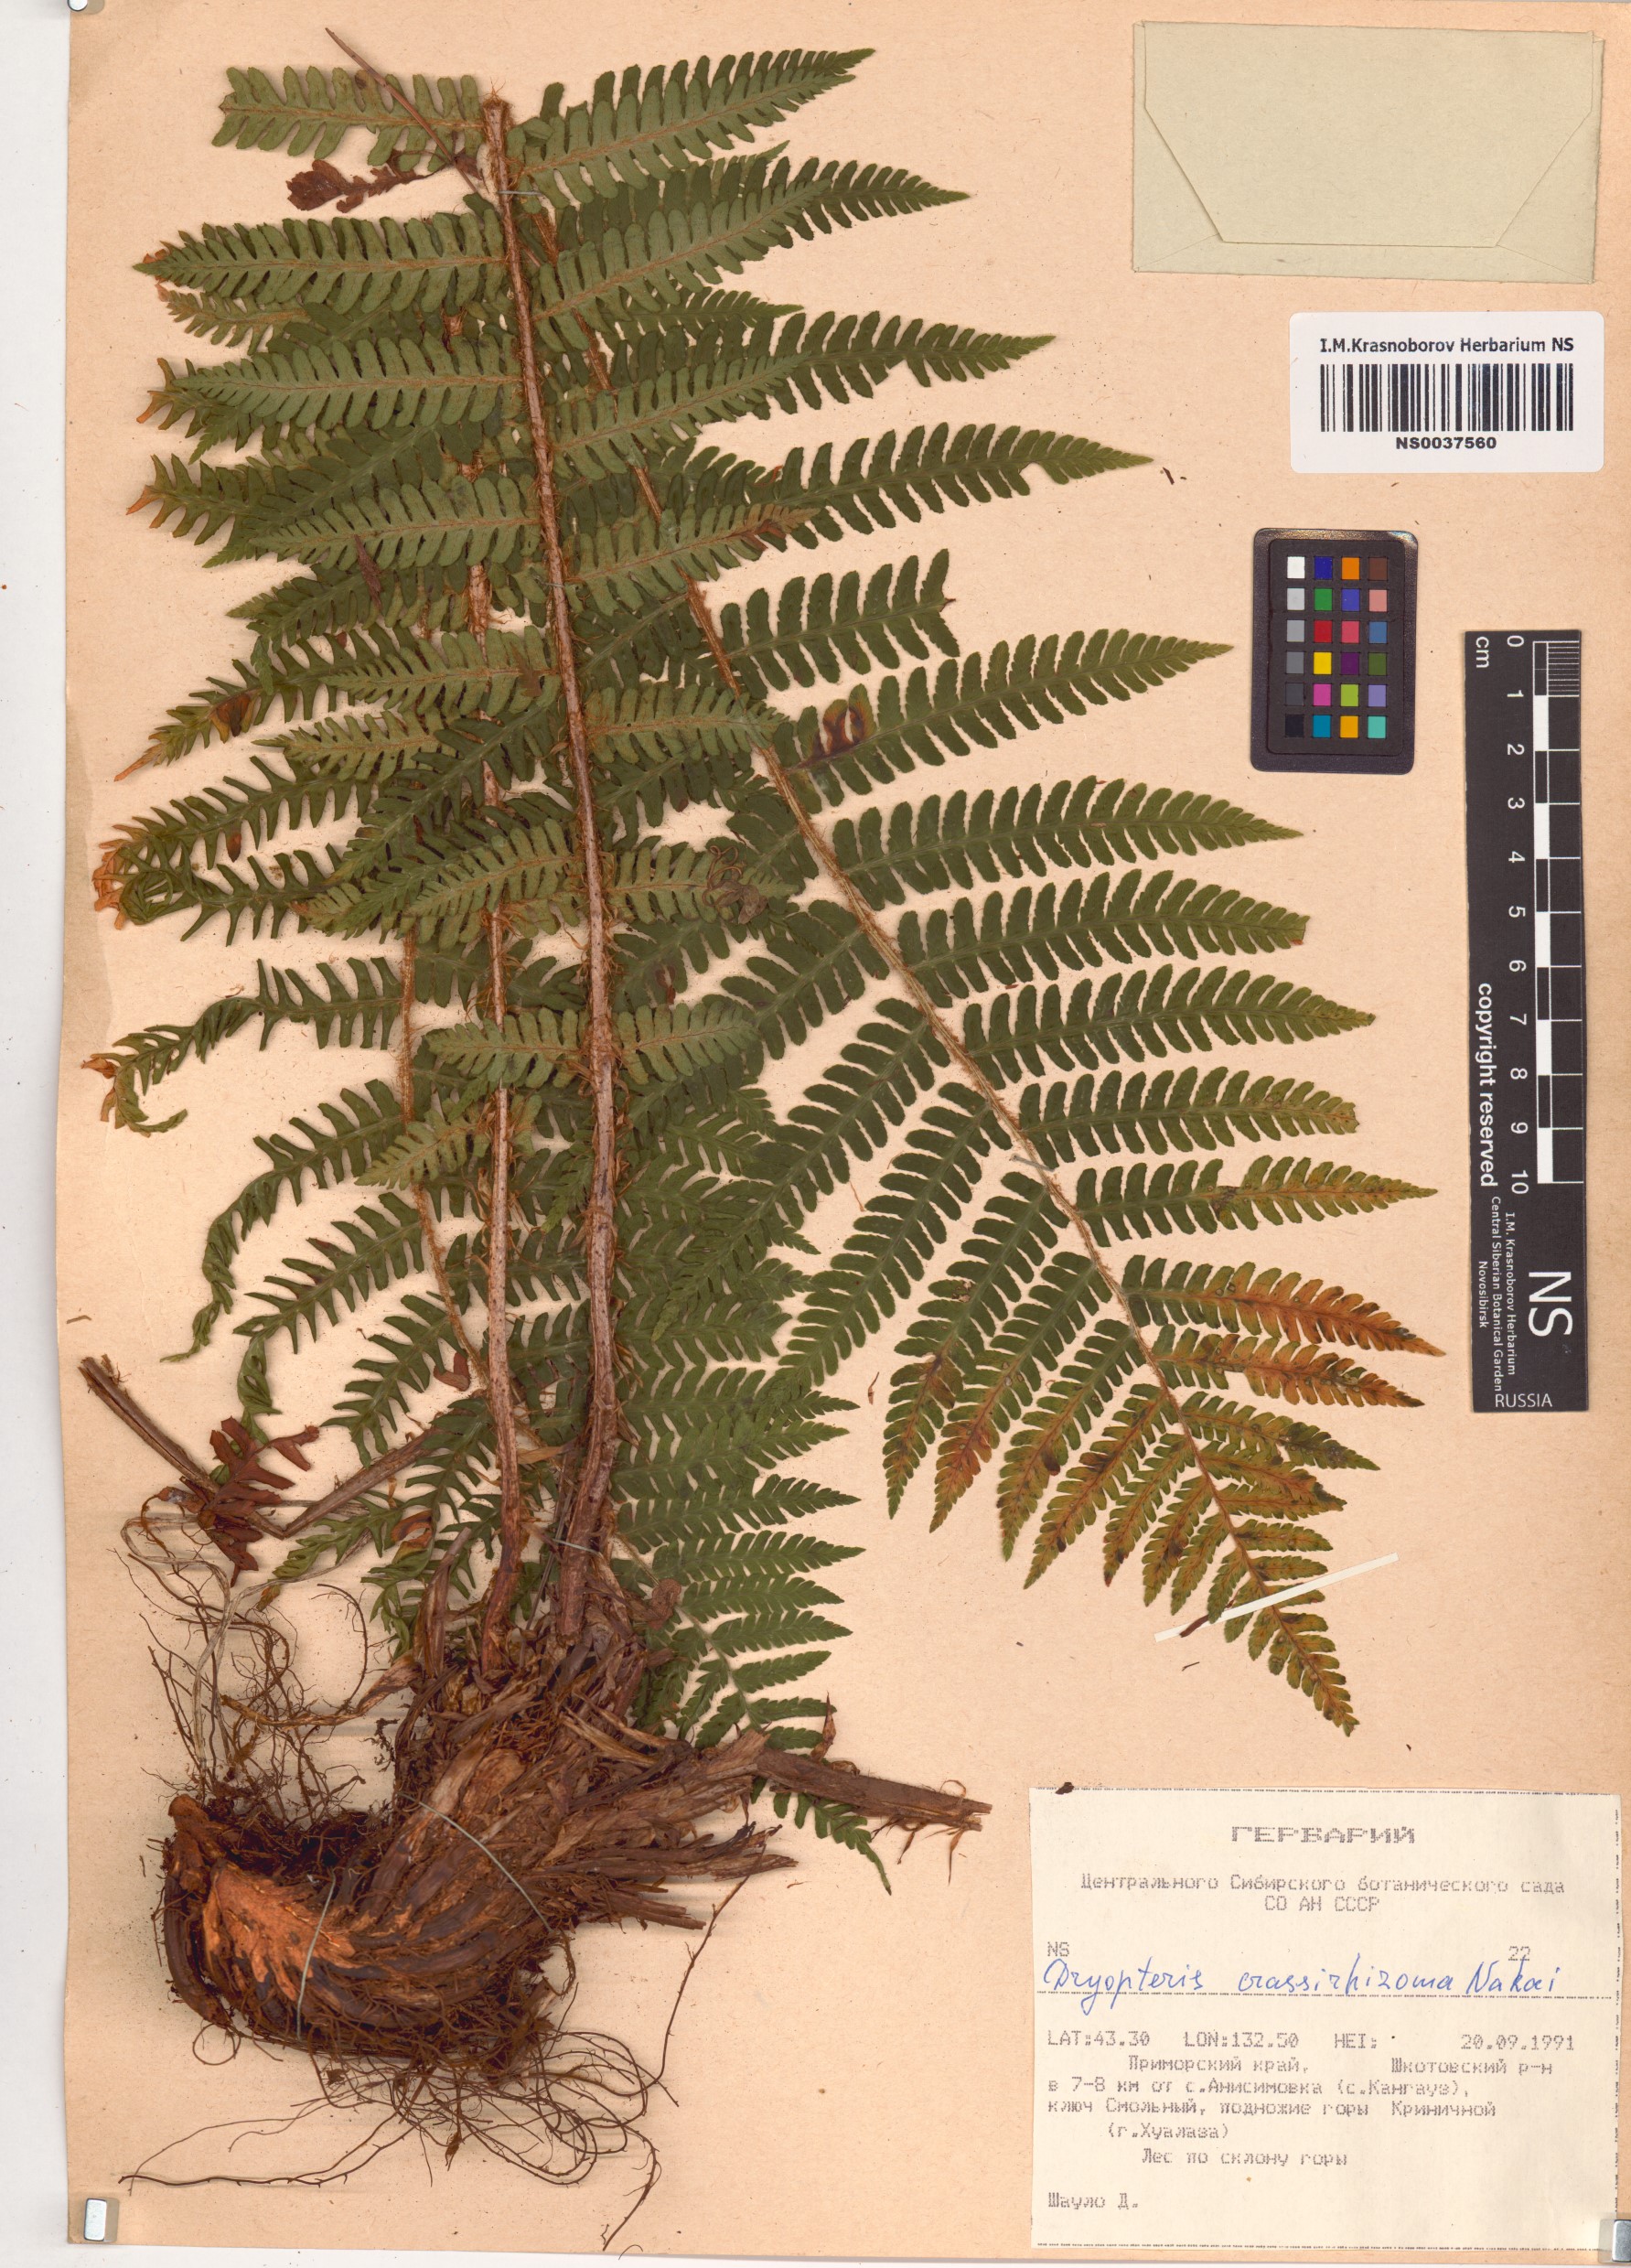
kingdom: Plantae
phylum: Tracheophyta
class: Polypodiopsida
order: Polypodiales
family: Dryopteridaceae
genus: Dryopteris
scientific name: Dryopteris crassirhizoma
